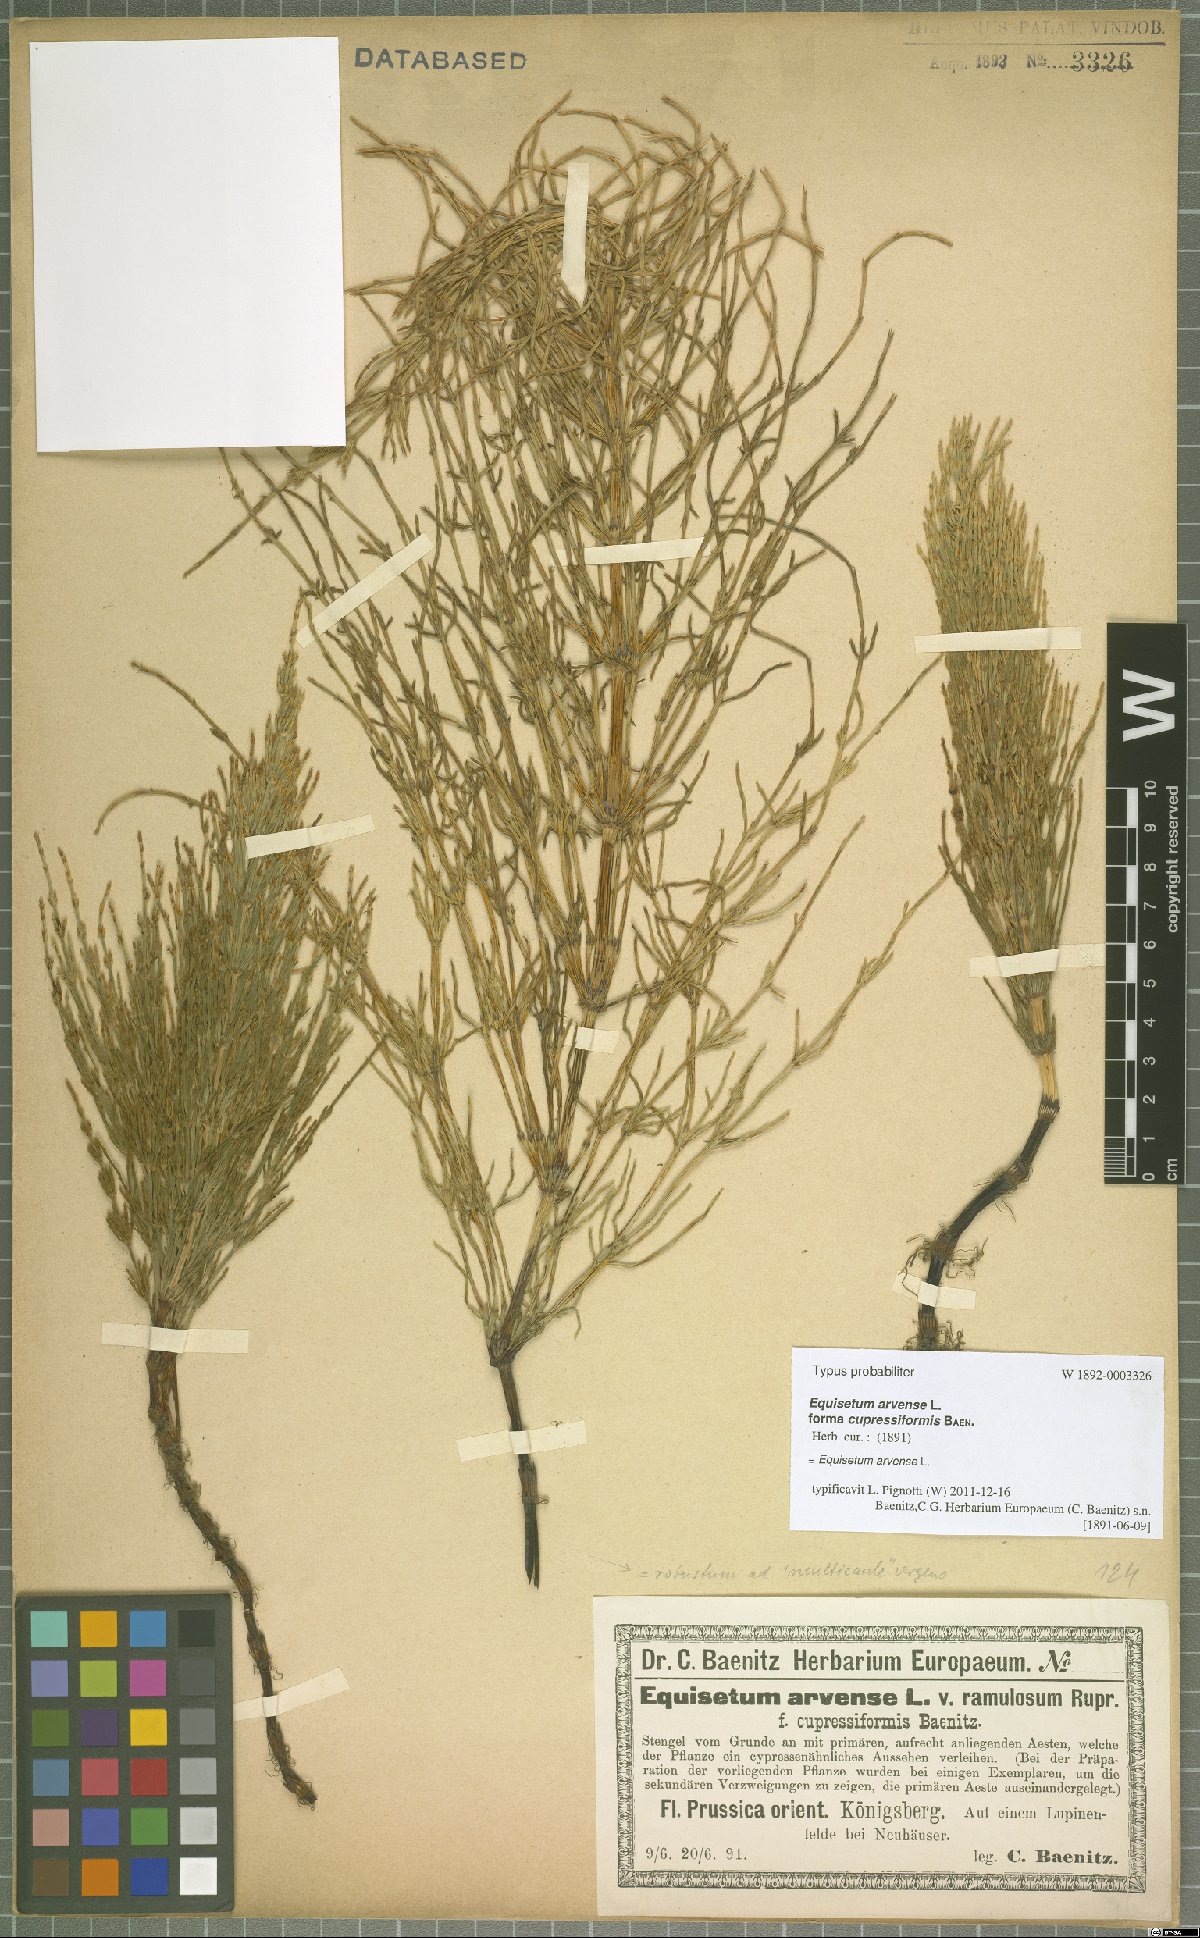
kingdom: Plantae
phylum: Tracheophyta
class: Polypodiopsida
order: Equisetales
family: Equisetaceae
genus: Equisetum
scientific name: Equisetum arvense
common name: Field horsetail
